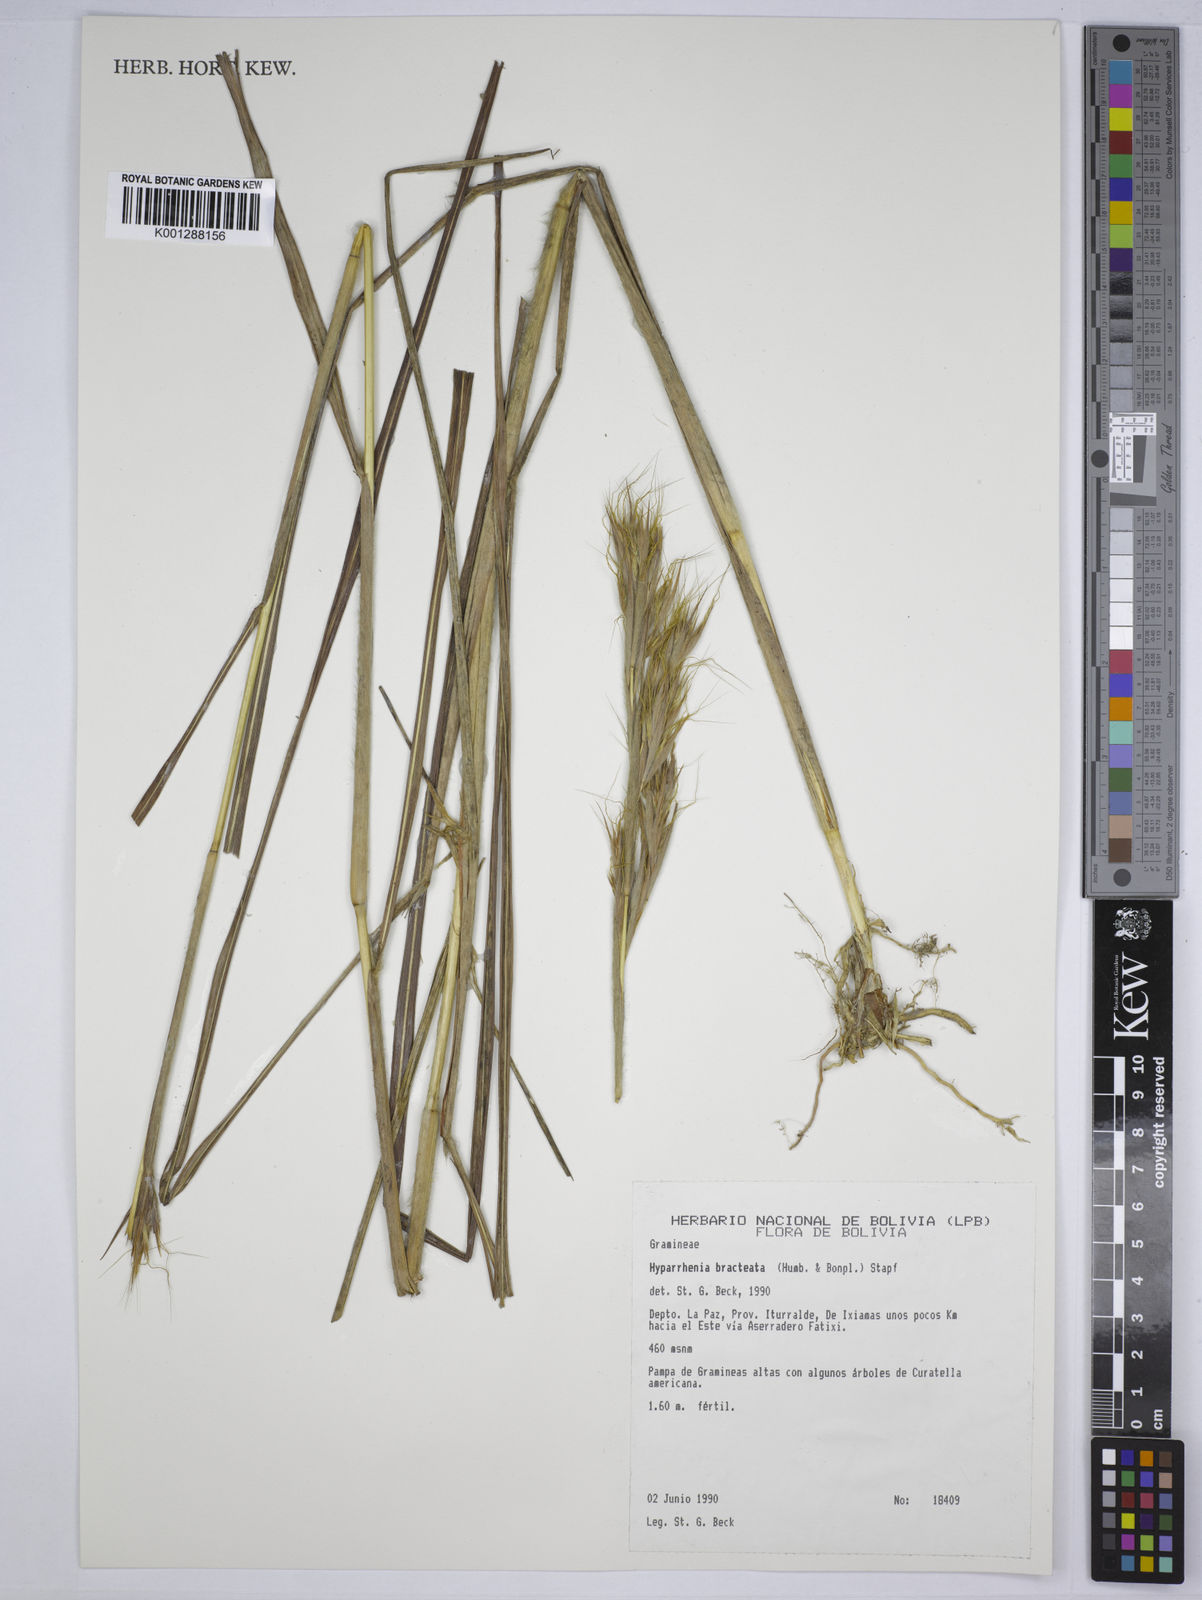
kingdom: Plantae
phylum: Tracheophyta
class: Liliopsida
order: Poales
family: Poaceae
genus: Hyparrhenia
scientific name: Hyparrhenia bracteata
